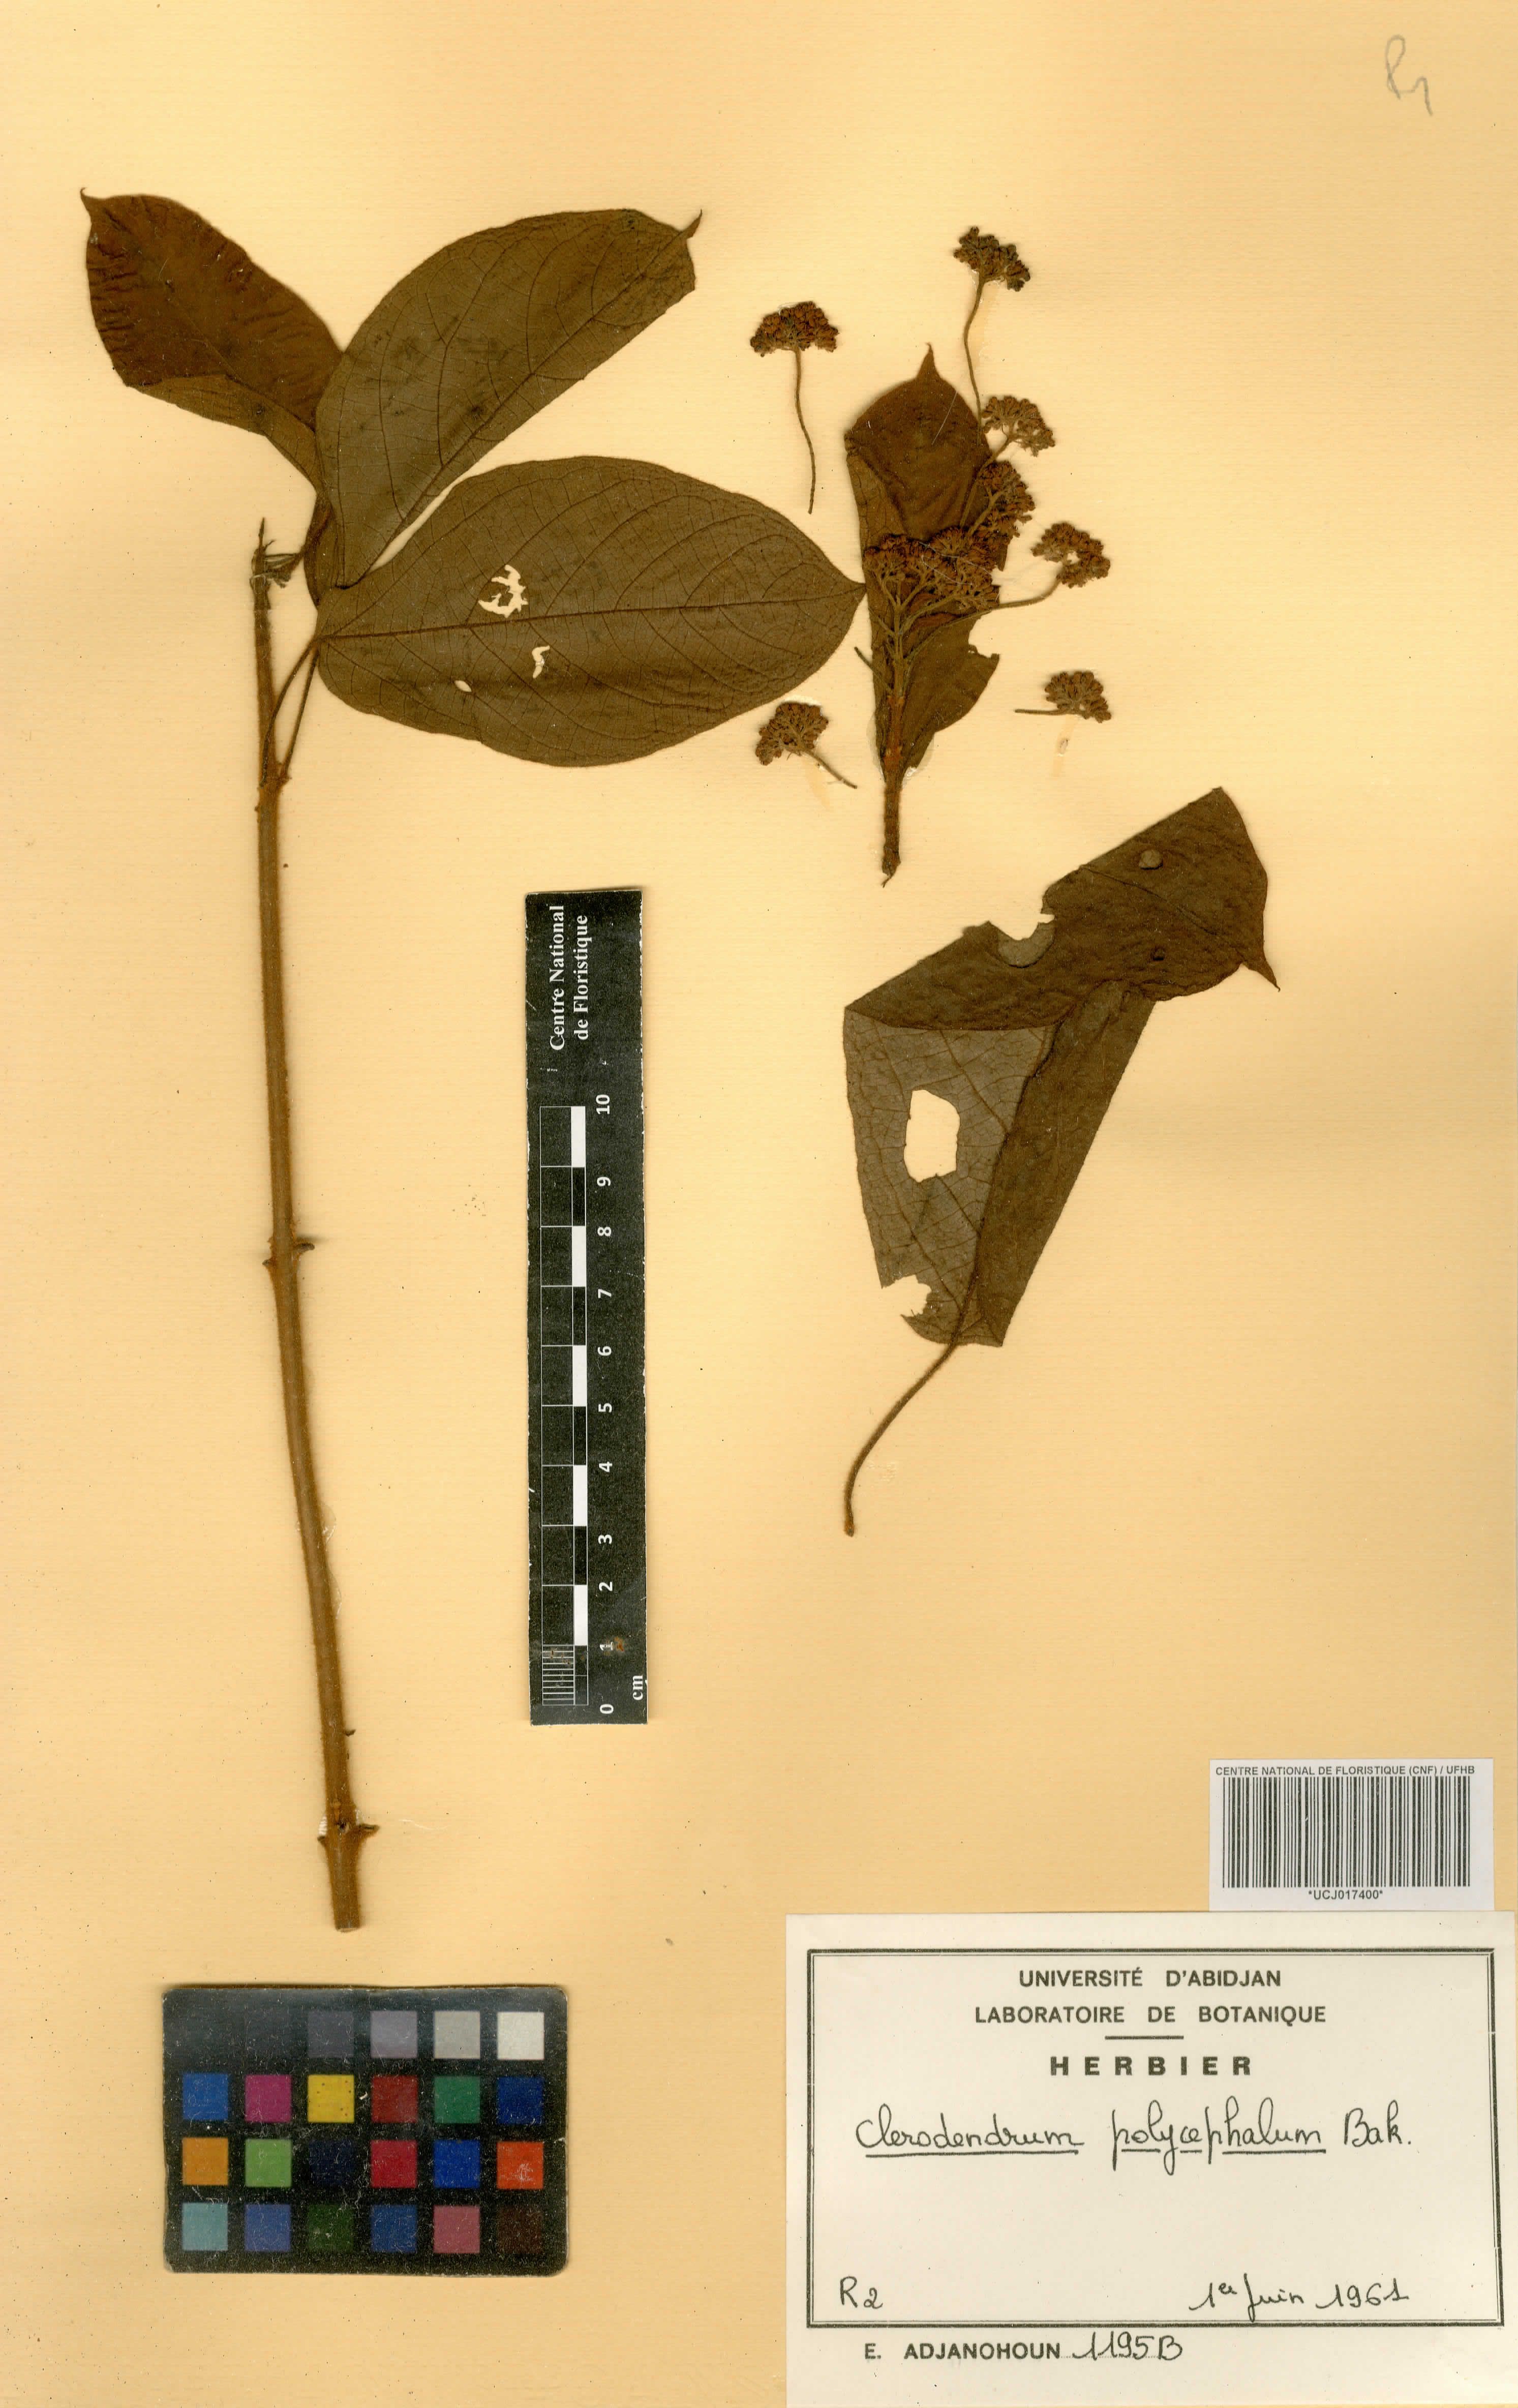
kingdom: Plantae
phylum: Tracheophyta
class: Magnoliopsida
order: Lamiales
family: Lamiaceae
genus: Clerodendrum
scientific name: Clerodendrum polycephalum
